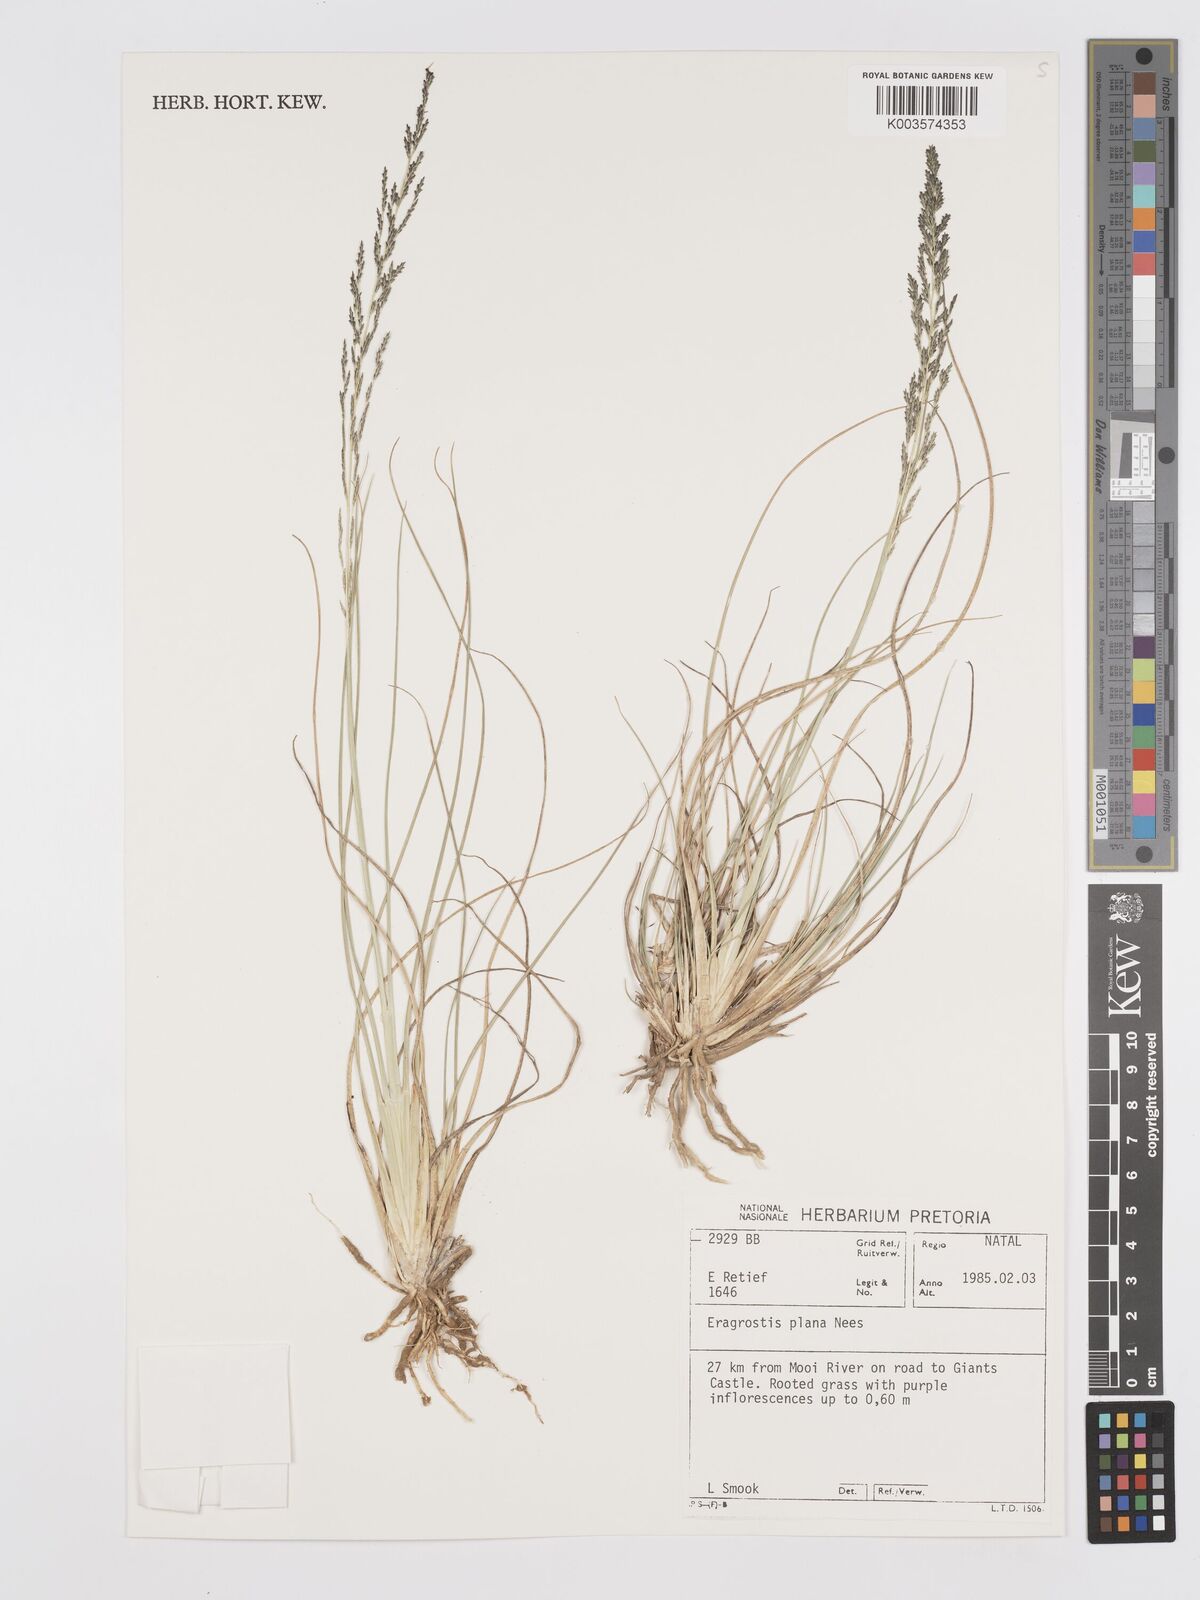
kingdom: Plantae
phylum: Tracheophyta
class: Liliopsida
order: Poales
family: Poaceae
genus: Eragrostis
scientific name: Eragrostis plana
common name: South african lovegrass
